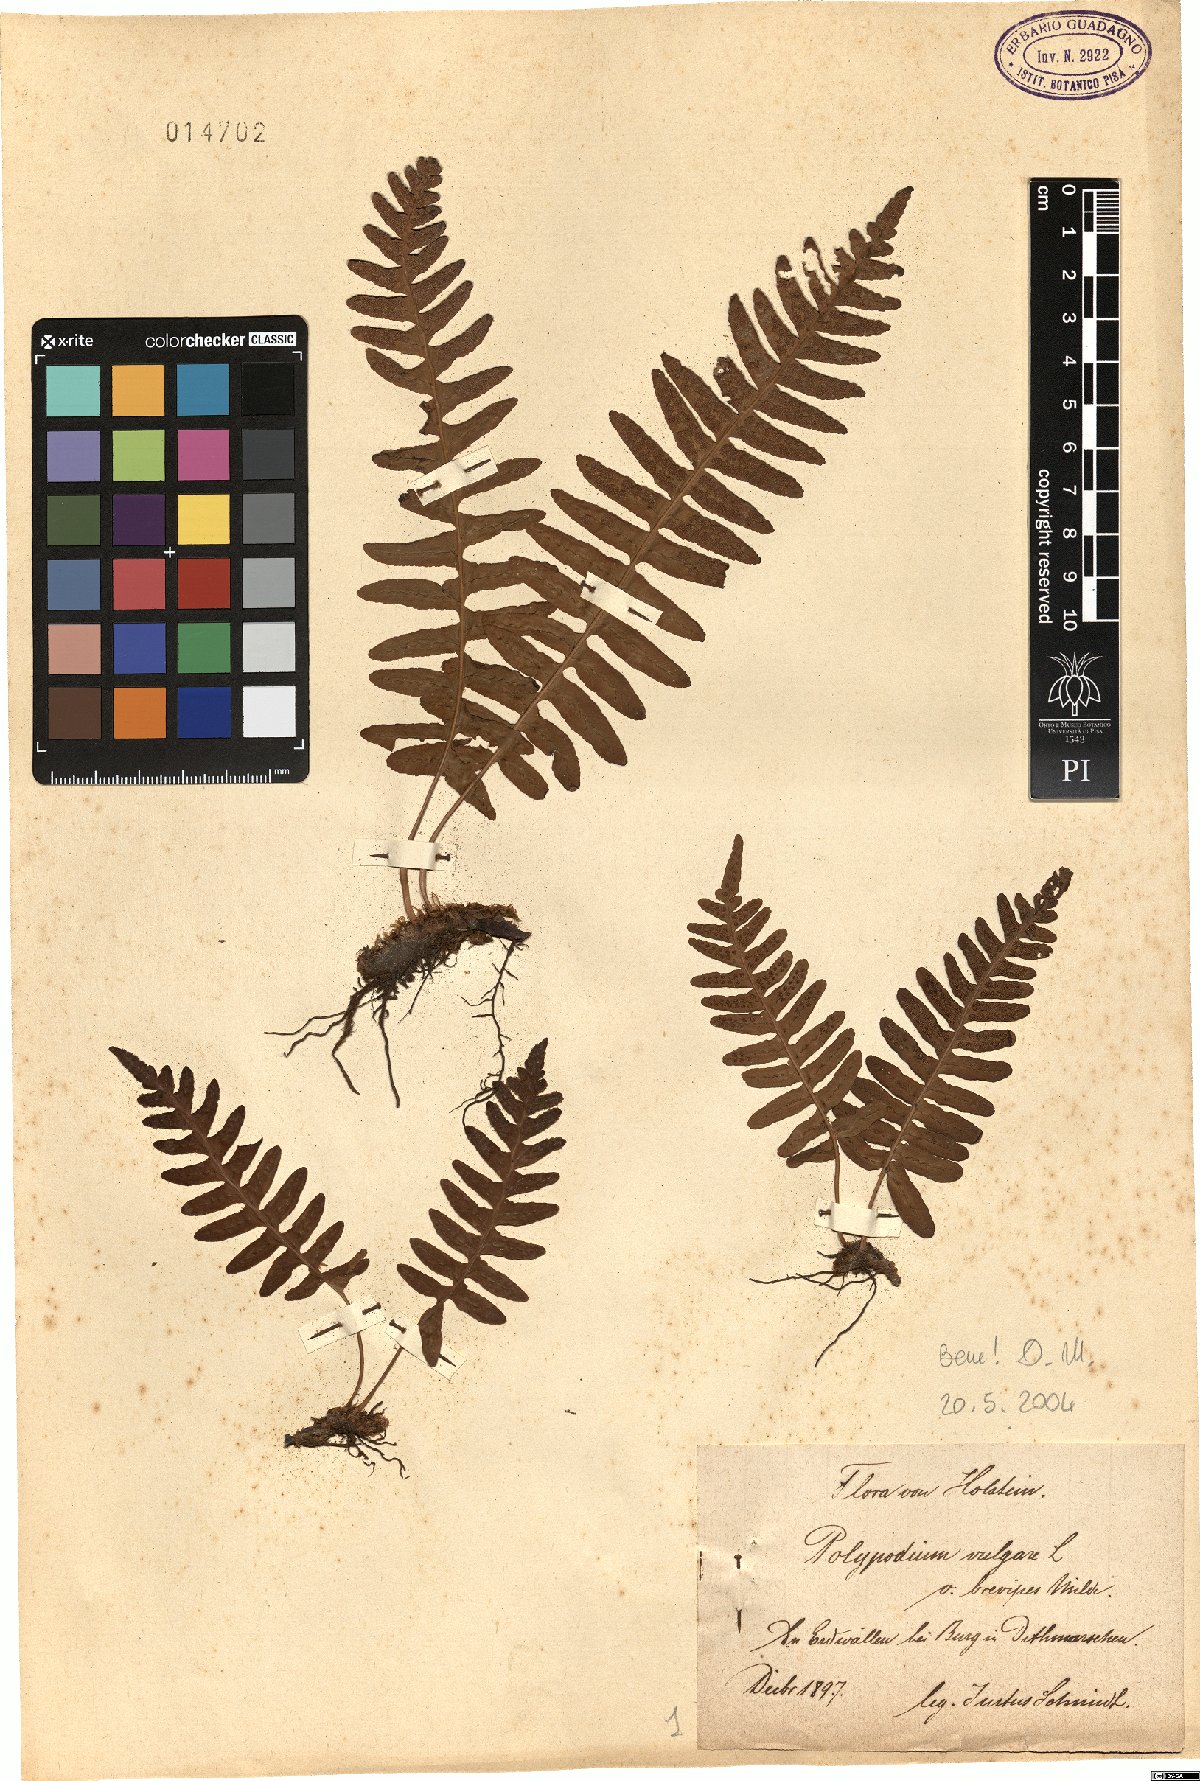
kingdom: Plantae
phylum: Tracheophyta
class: Polypodiopsida
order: Polypodiales
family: Polypodiaceae
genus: Polypodium
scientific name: Polypodium vulgare
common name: Common polypody
